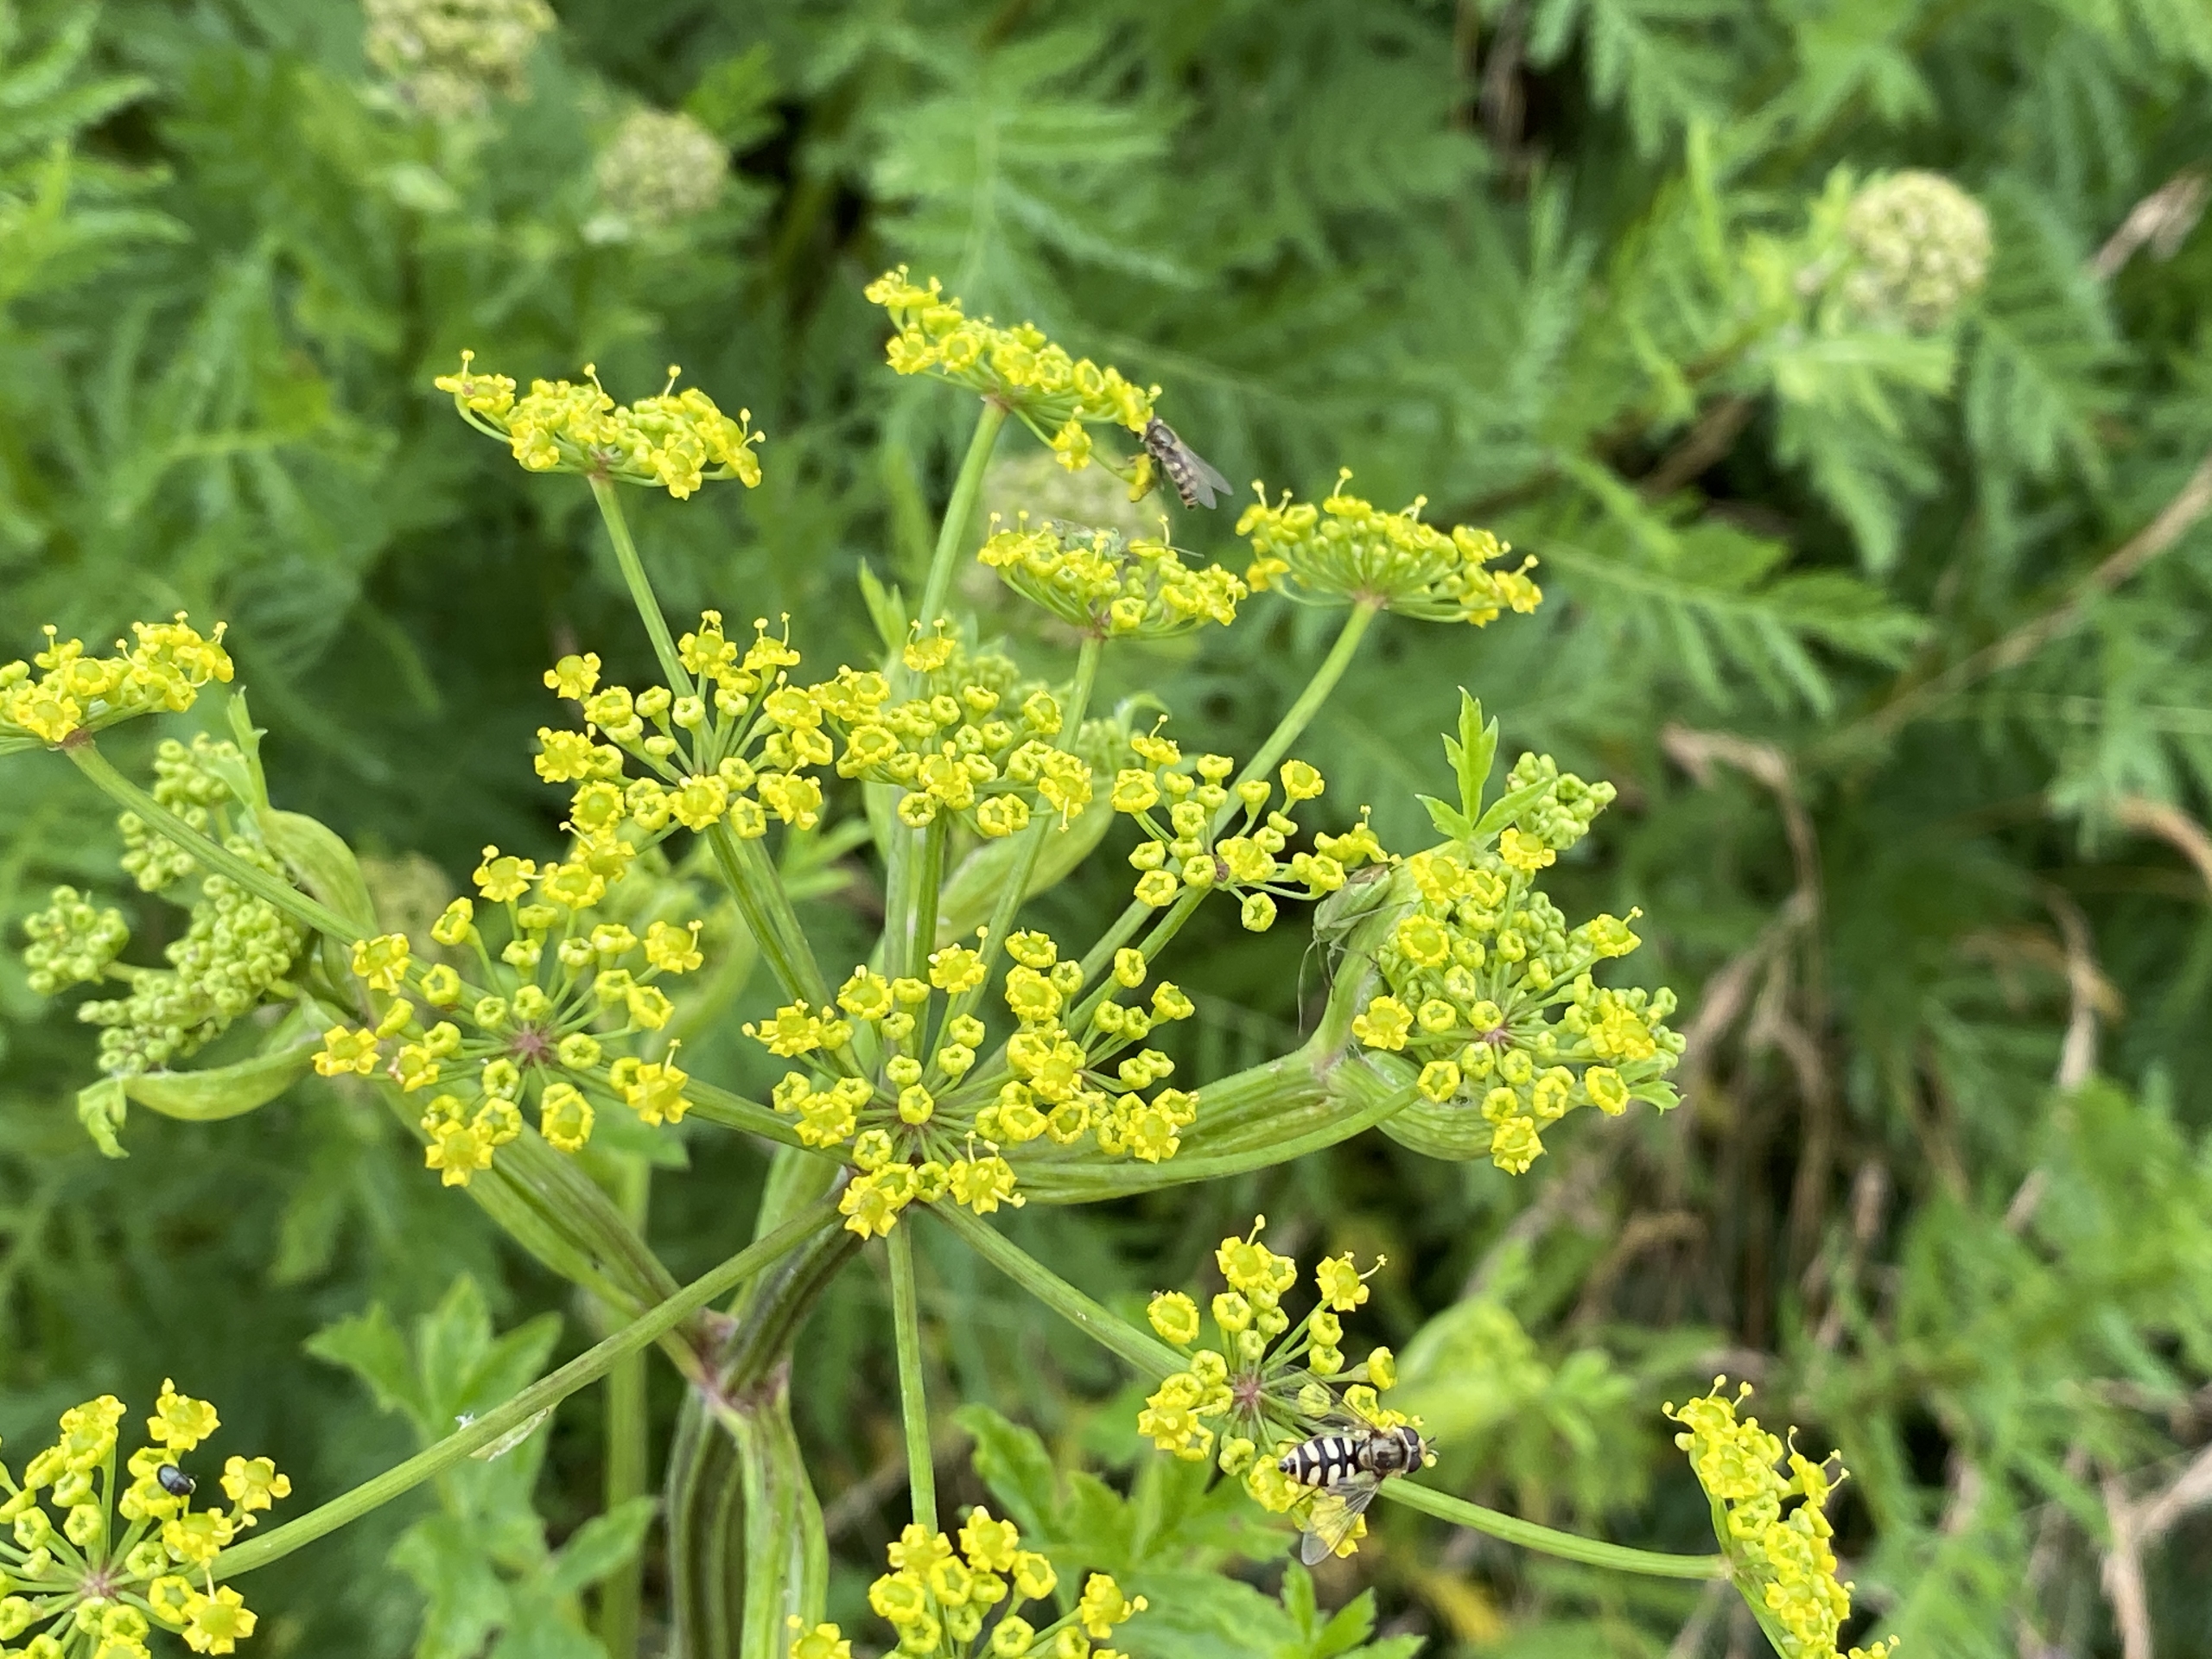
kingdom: Plantae
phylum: Tracheophyta
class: Magnoliopsida
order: Apiales
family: Apiaceae
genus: Pastinaca
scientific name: Pastinaca sativa
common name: Pastinak
